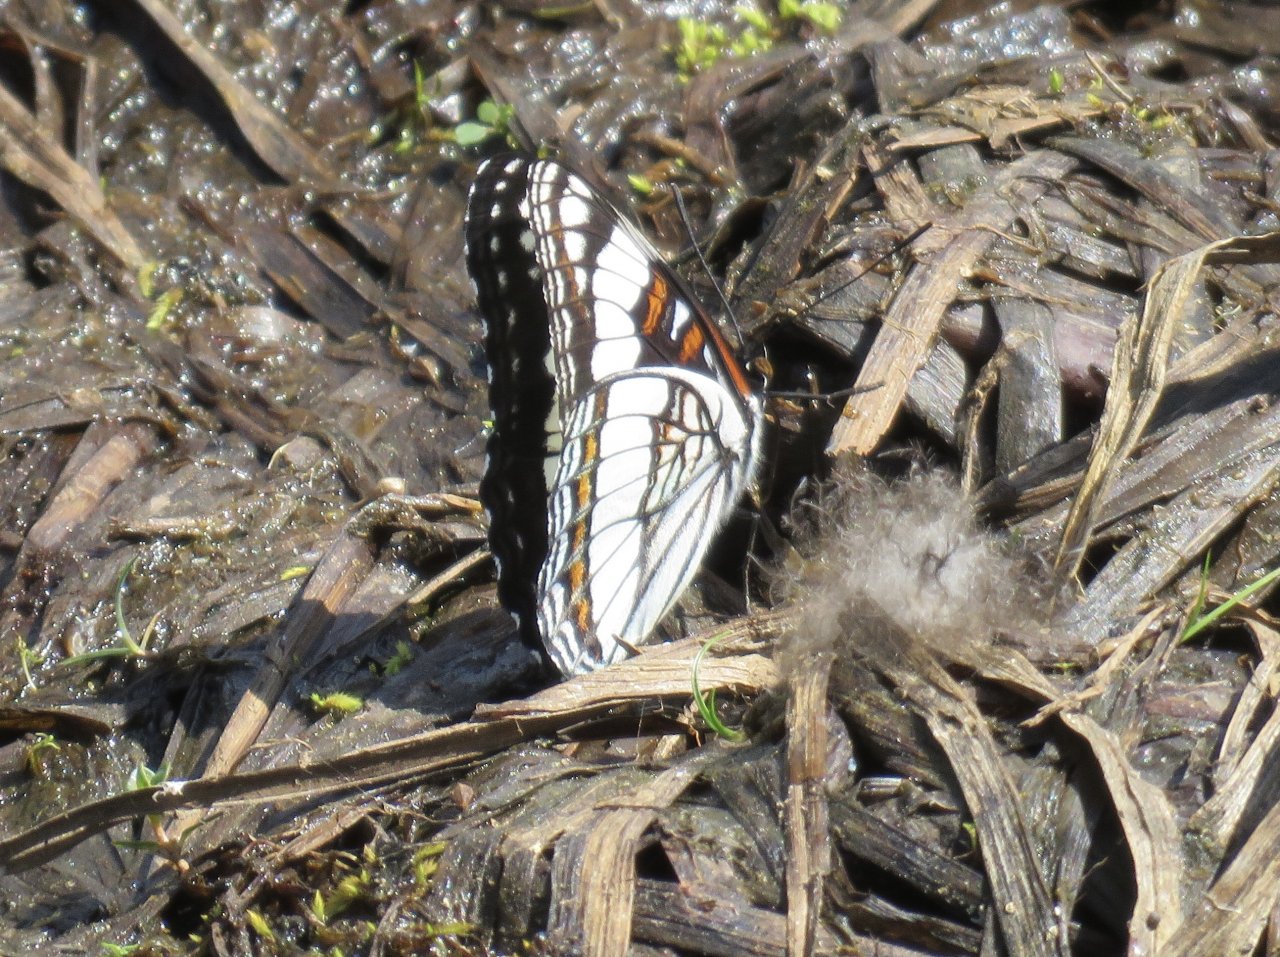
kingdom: Animalia
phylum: Arthropoda
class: Insecta
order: Lepidoptera
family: Nymphalidae
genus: Limenitis
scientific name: Limenitis weidemeyerii
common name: Weidemeyer's Admiral
